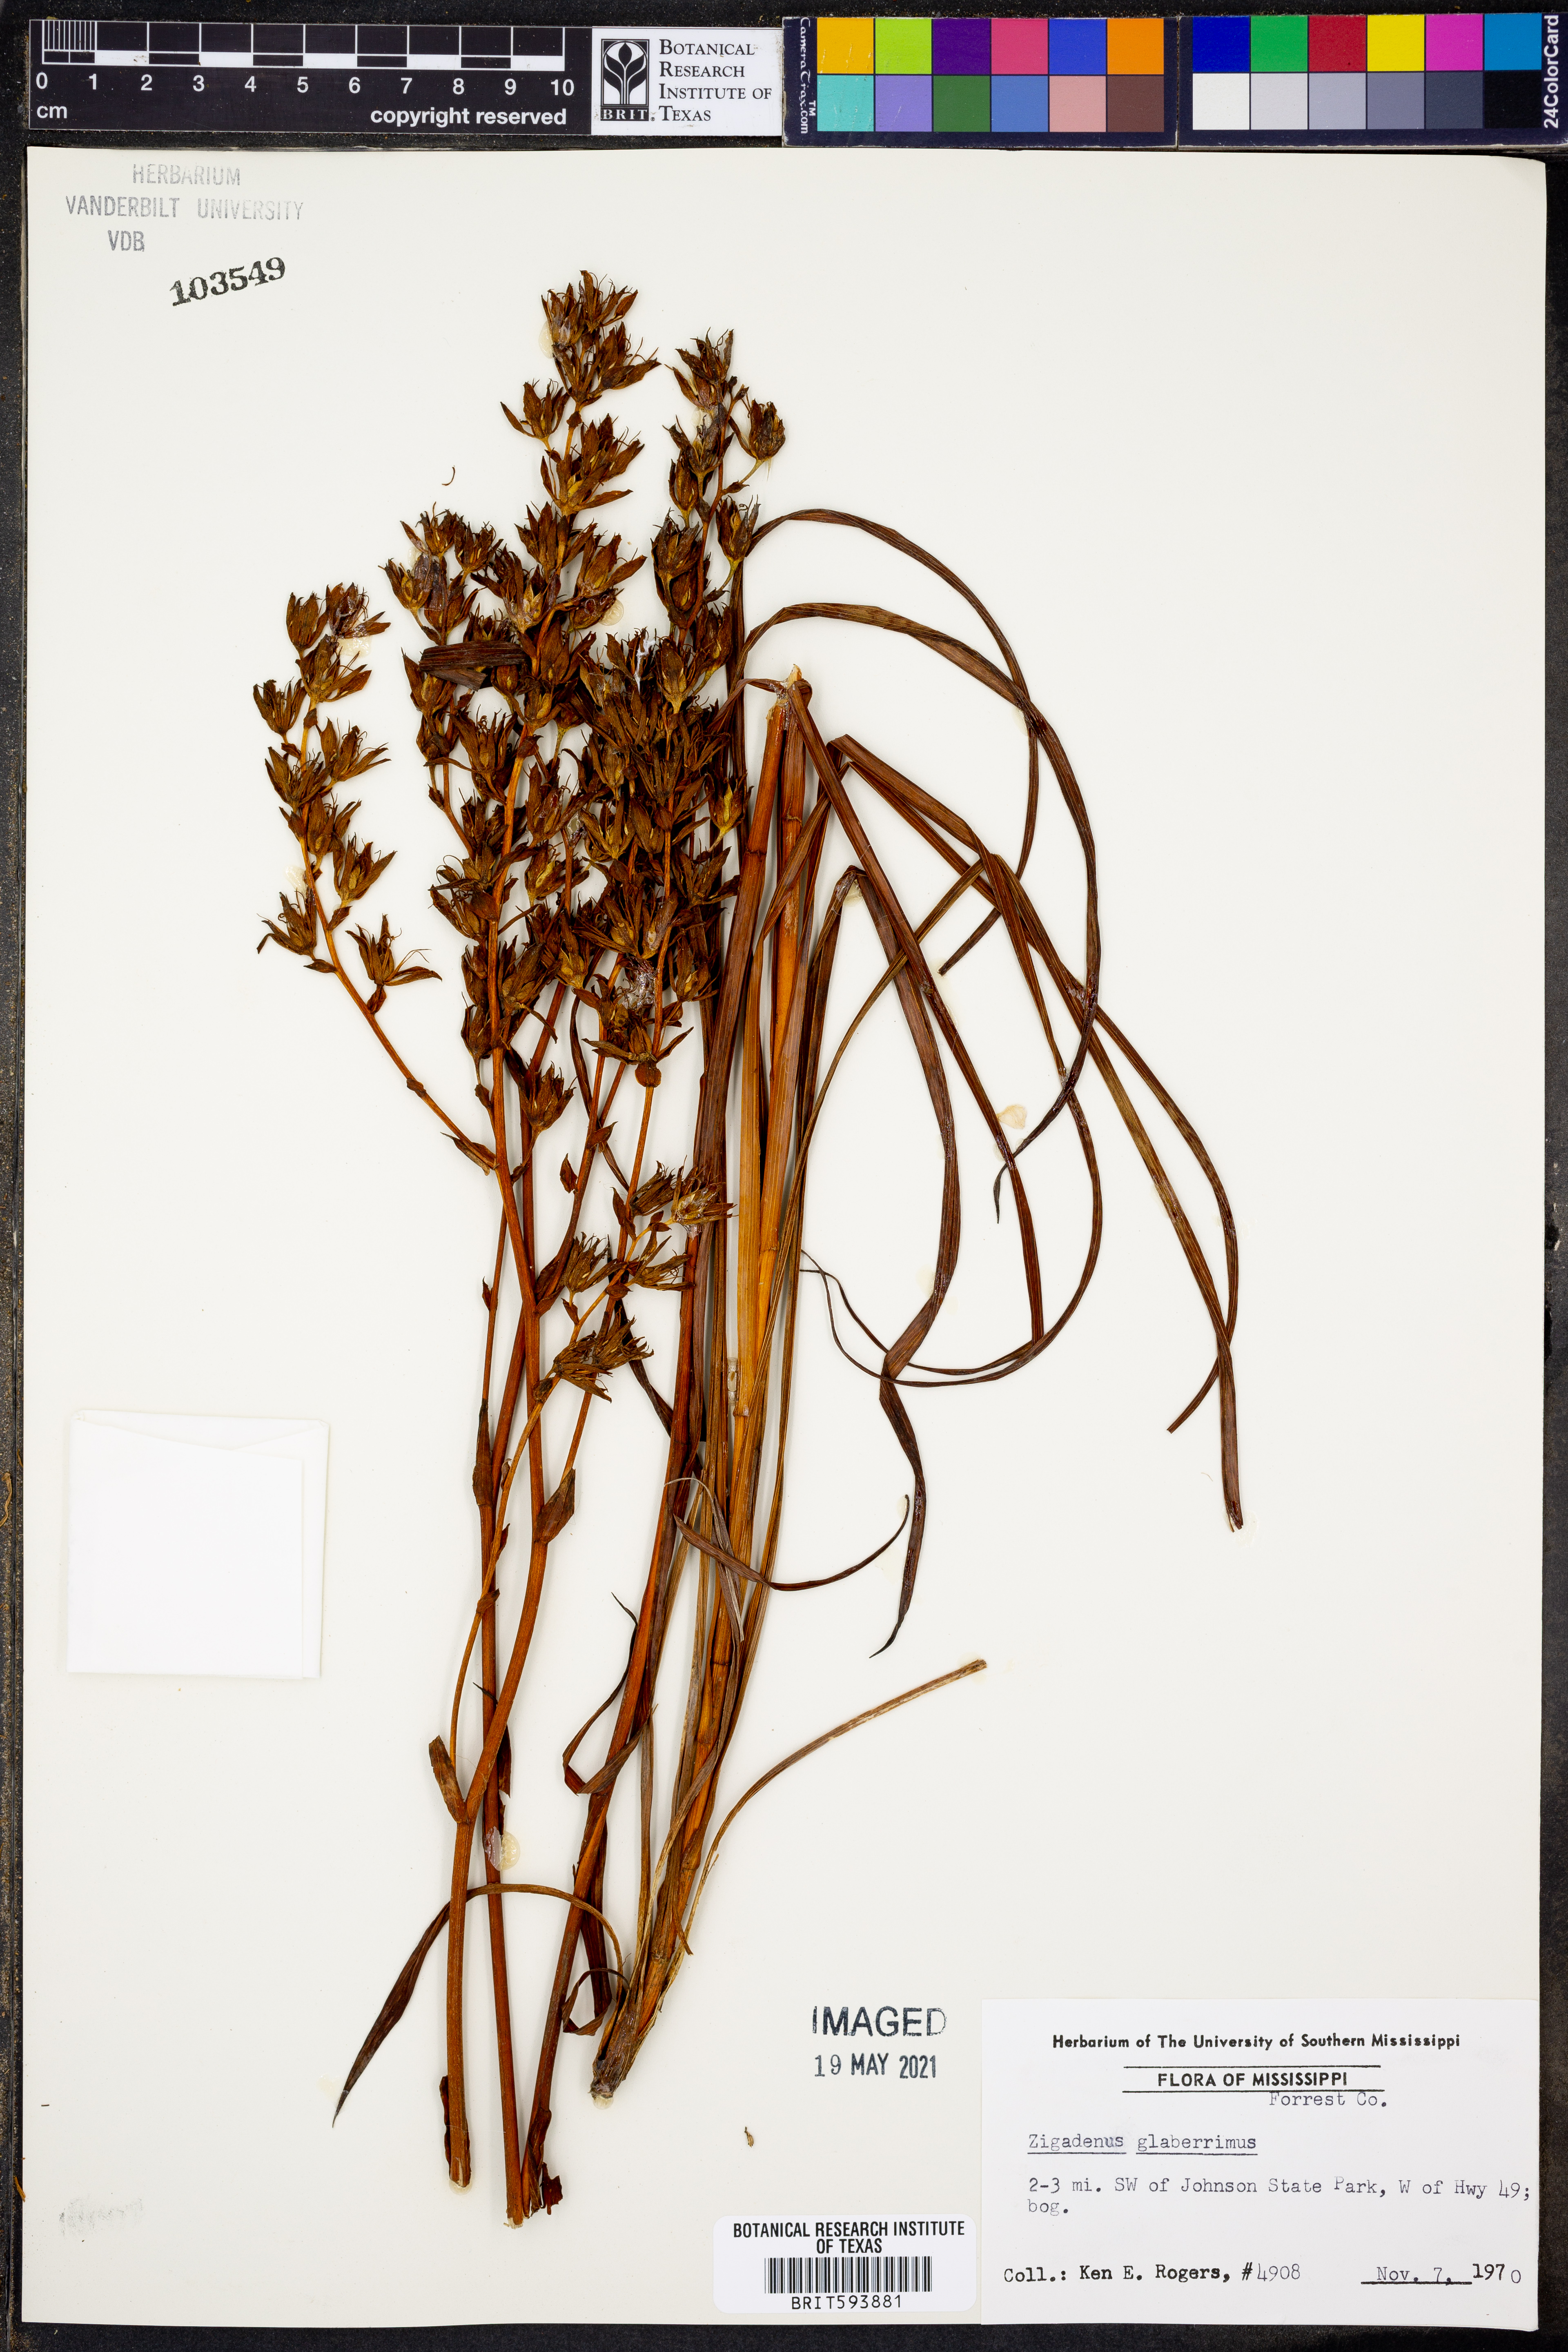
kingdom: Plantae
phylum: Tracheophyta
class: Liliopsida
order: Liliales
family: Melanthiaceae
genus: Zigadenus
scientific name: Zigadenus glaberrimus
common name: Sandbog death camas
